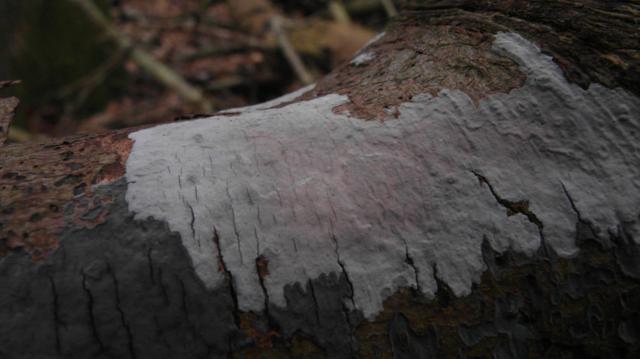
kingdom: Fungi
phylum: Basidiomycota
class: Agaricomycetes
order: Russulales
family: Peniophoraceae
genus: Peniophora
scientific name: Peniophora lycii
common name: grynet voksskind
